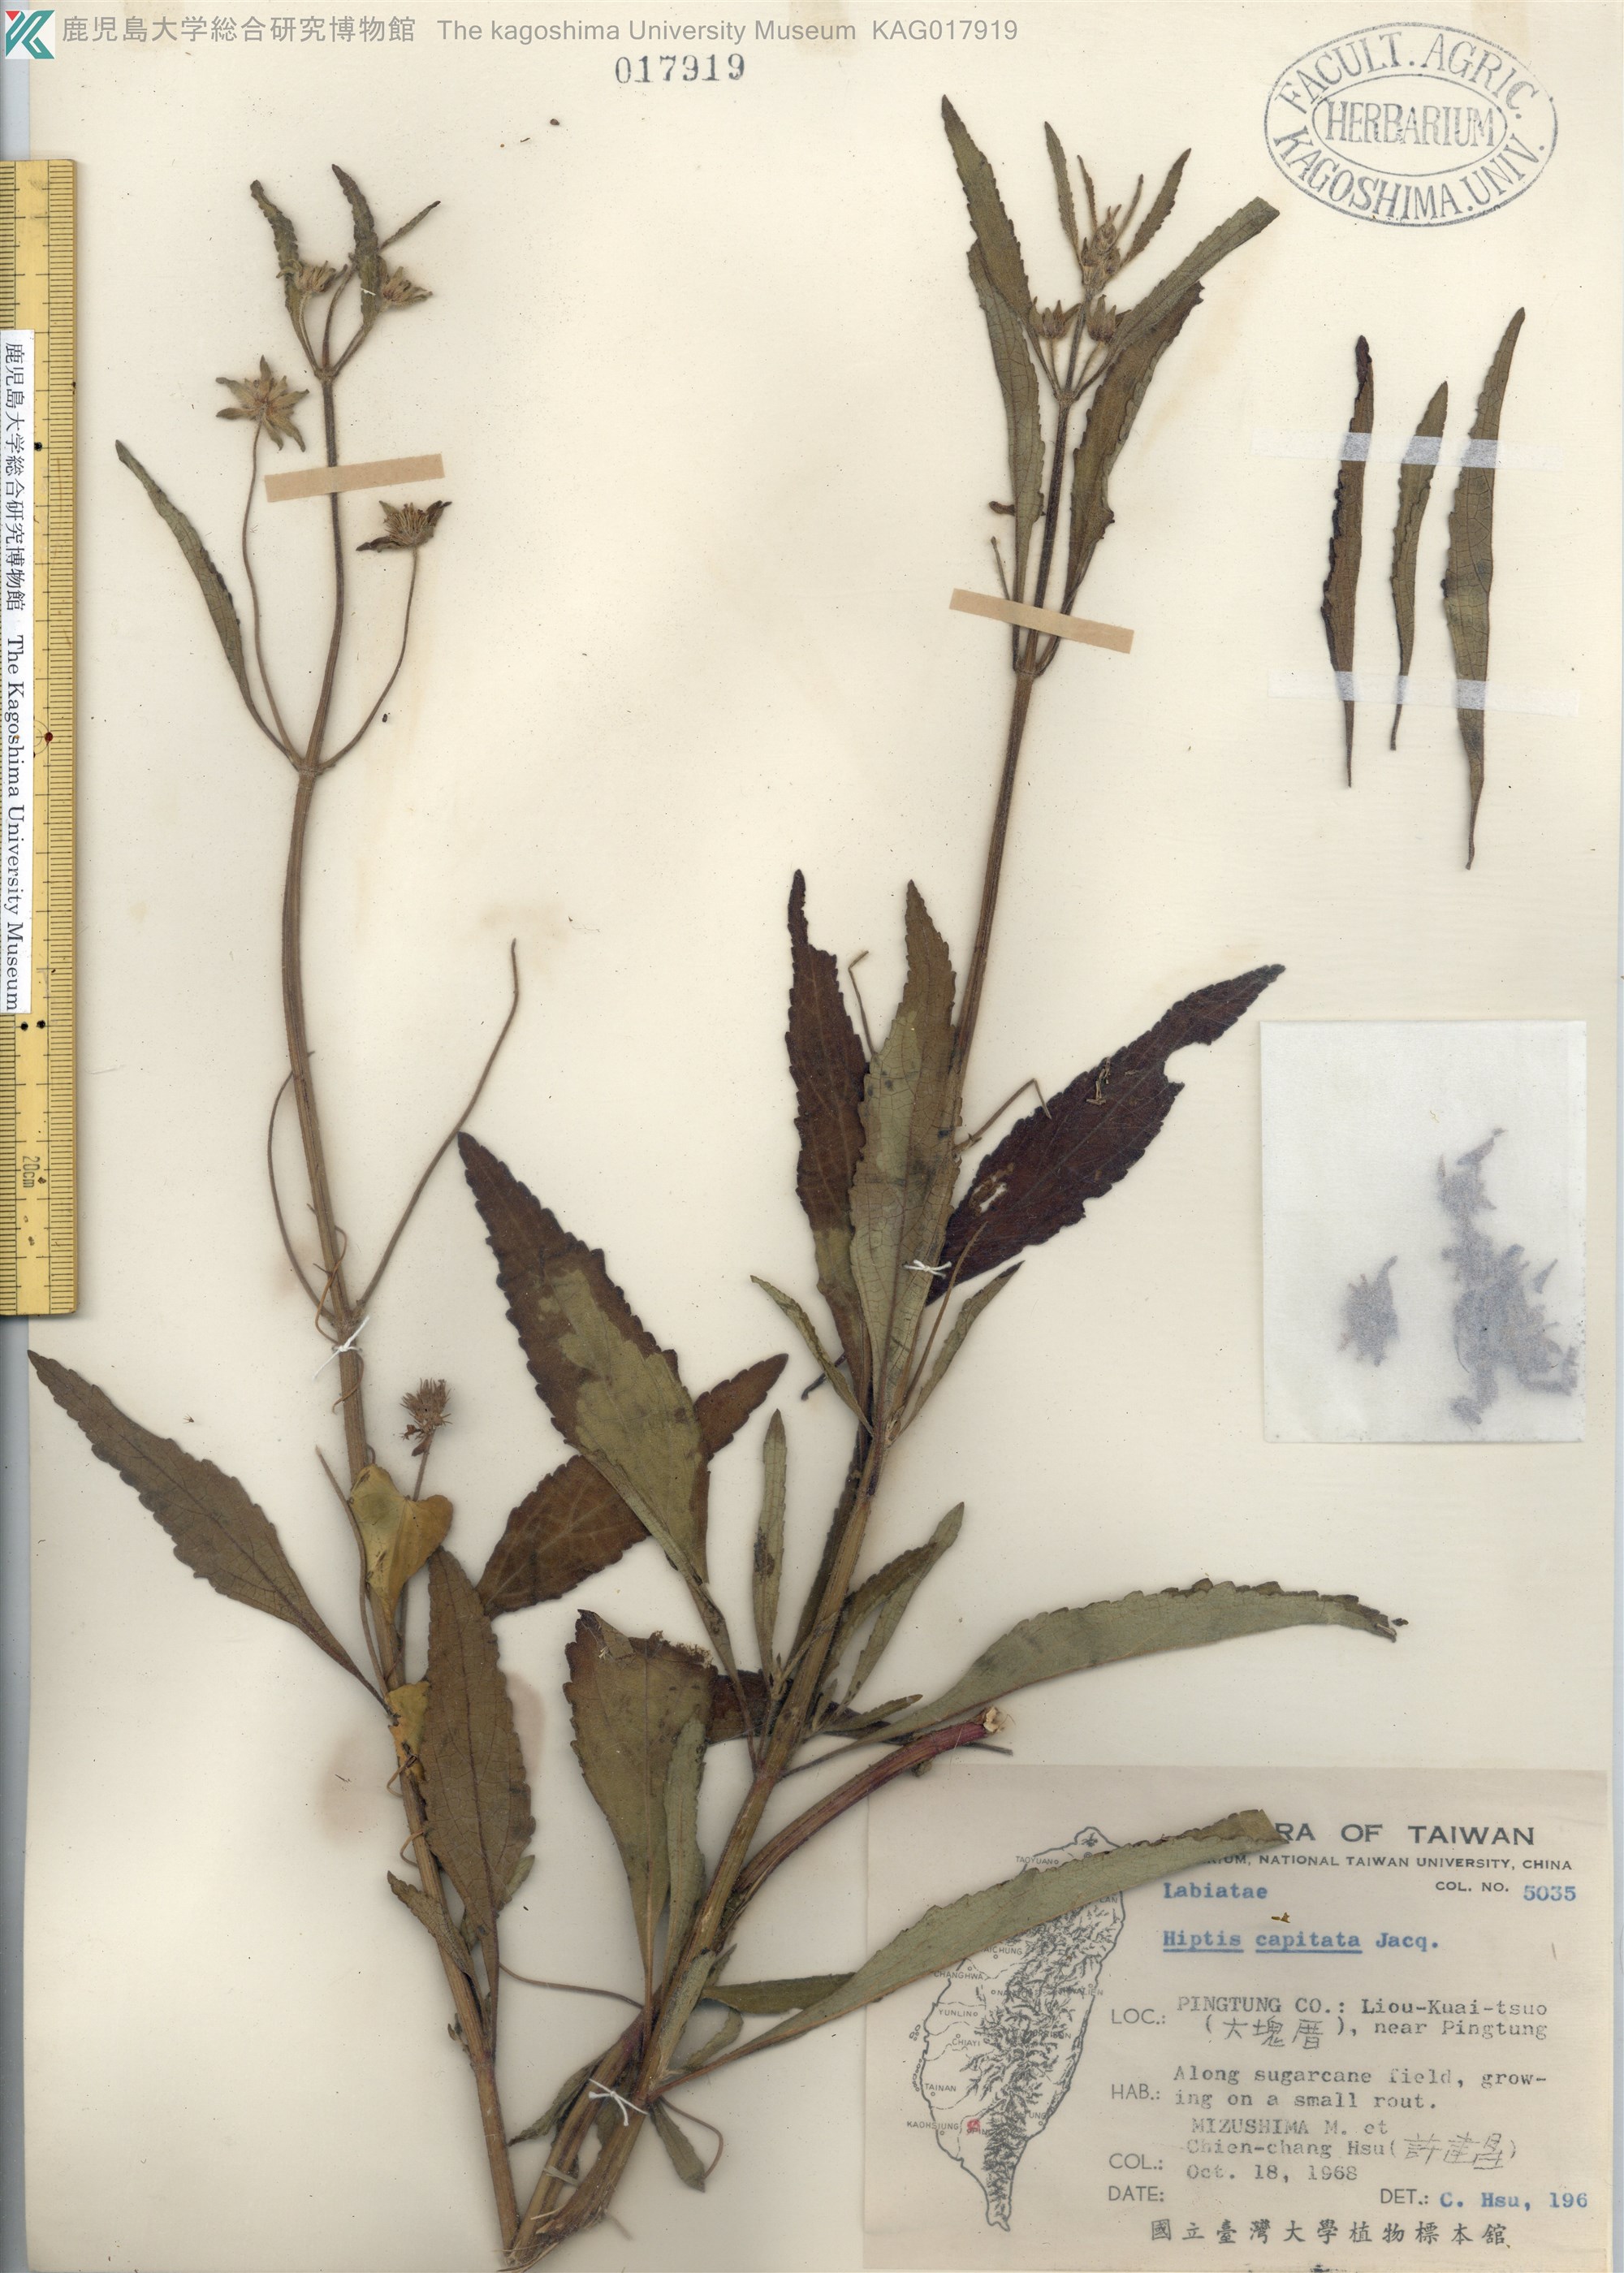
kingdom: Plantae
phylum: Tracheophyta
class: Magnoliopsida
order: Lamiales
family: Lamiaceae
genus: Hyptis
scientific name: Hyptis capitata
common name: False ironwort
